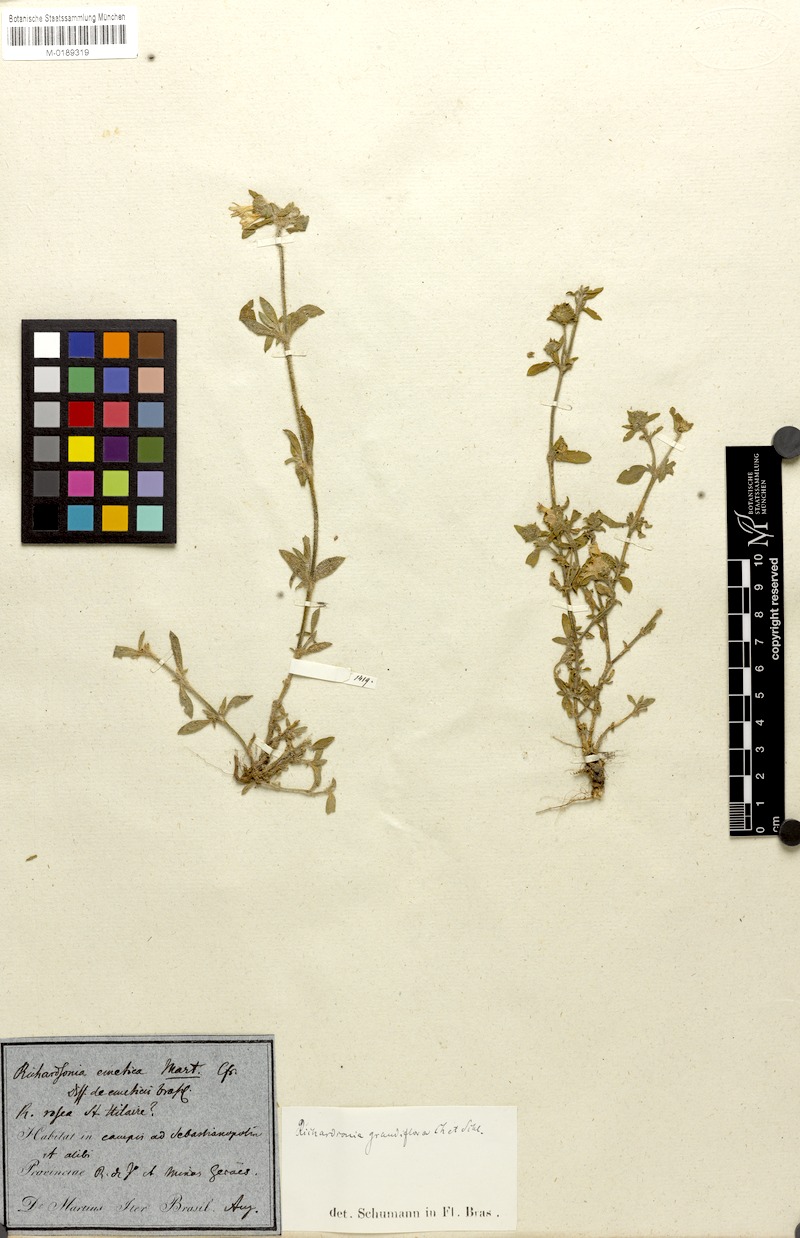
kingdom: Plantae
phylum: Tracheophyta
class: Magnoliopsida
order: Gentianales
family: Rubiaceae
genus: Richardia
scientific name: Richardia brasiliensis
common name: Tropical mexican clover
